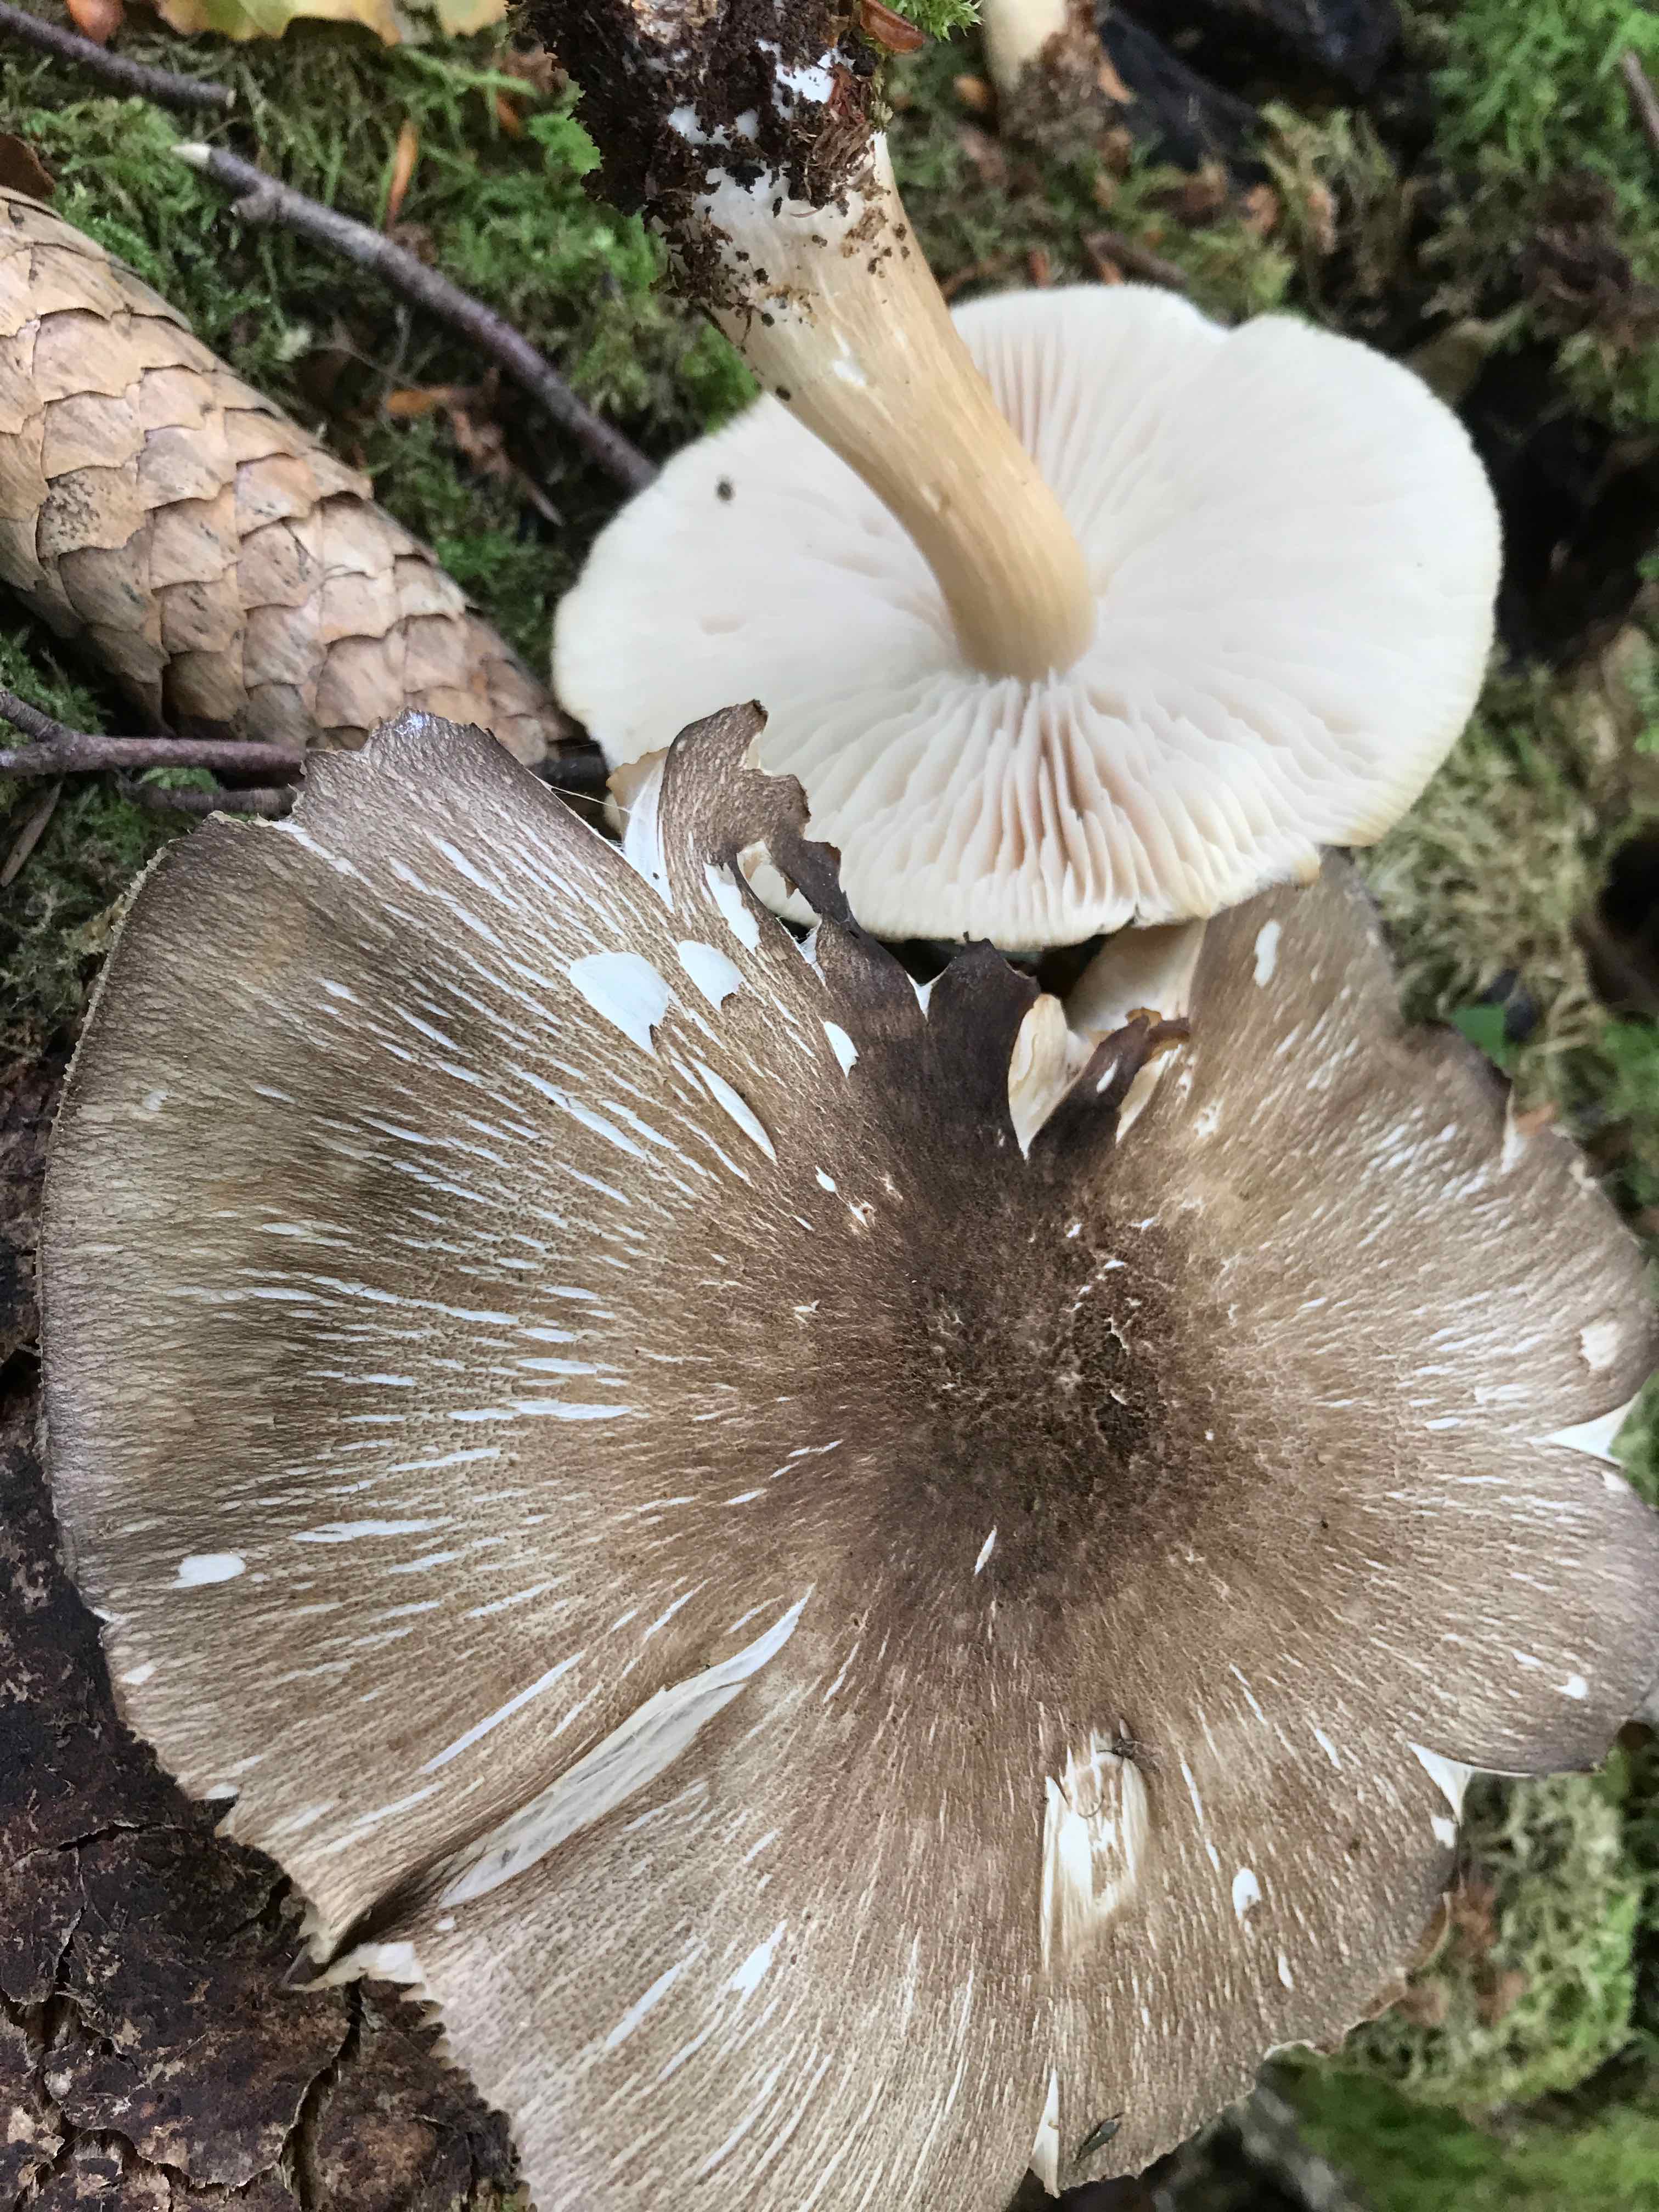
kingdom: Fungi
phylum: Basidiomycota
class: Agaricomycetes
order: Agaricales
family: Tricholomataceae
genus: Megacollybia
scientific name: Megacollybia platyphylla
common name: bredbladet væbnerhat
